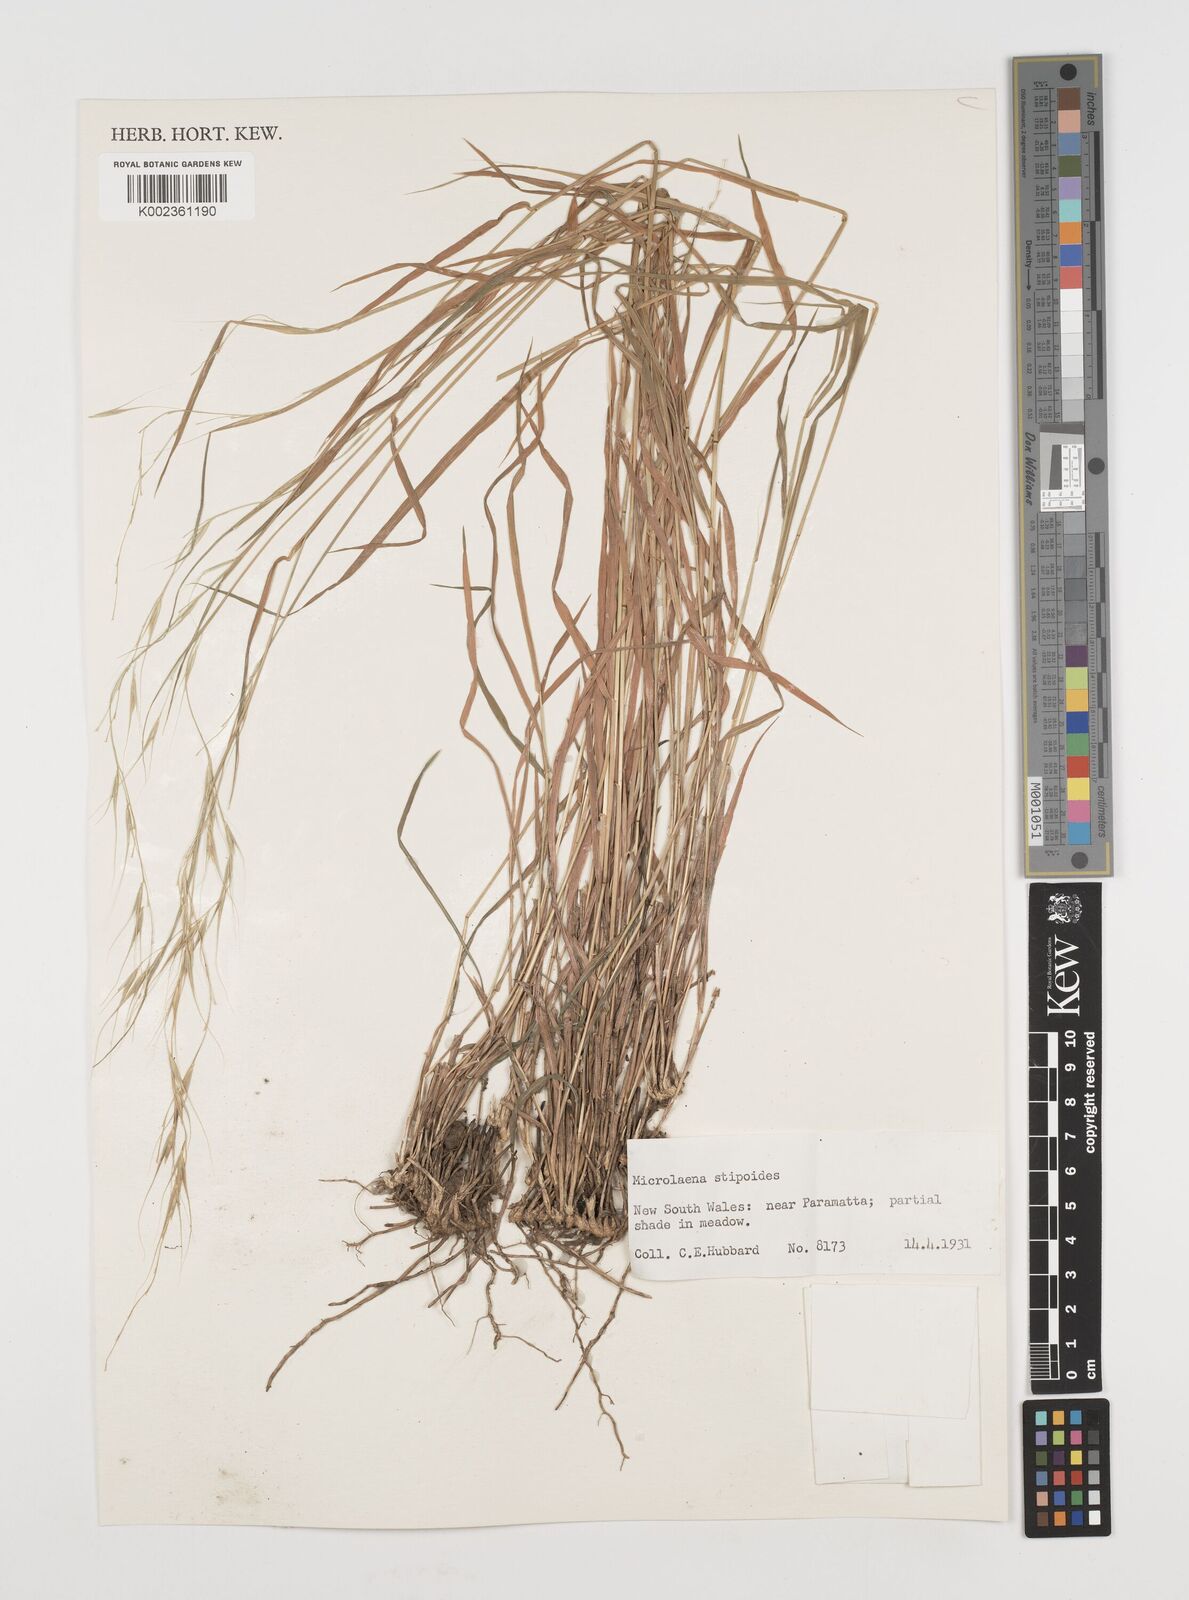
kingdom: Plantae
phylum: Tracheophyta
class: Liliopsida
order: Poales
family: Poaceae
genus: Microlaena
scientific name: Microlaena stipoides
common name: Meadow ricegrass
